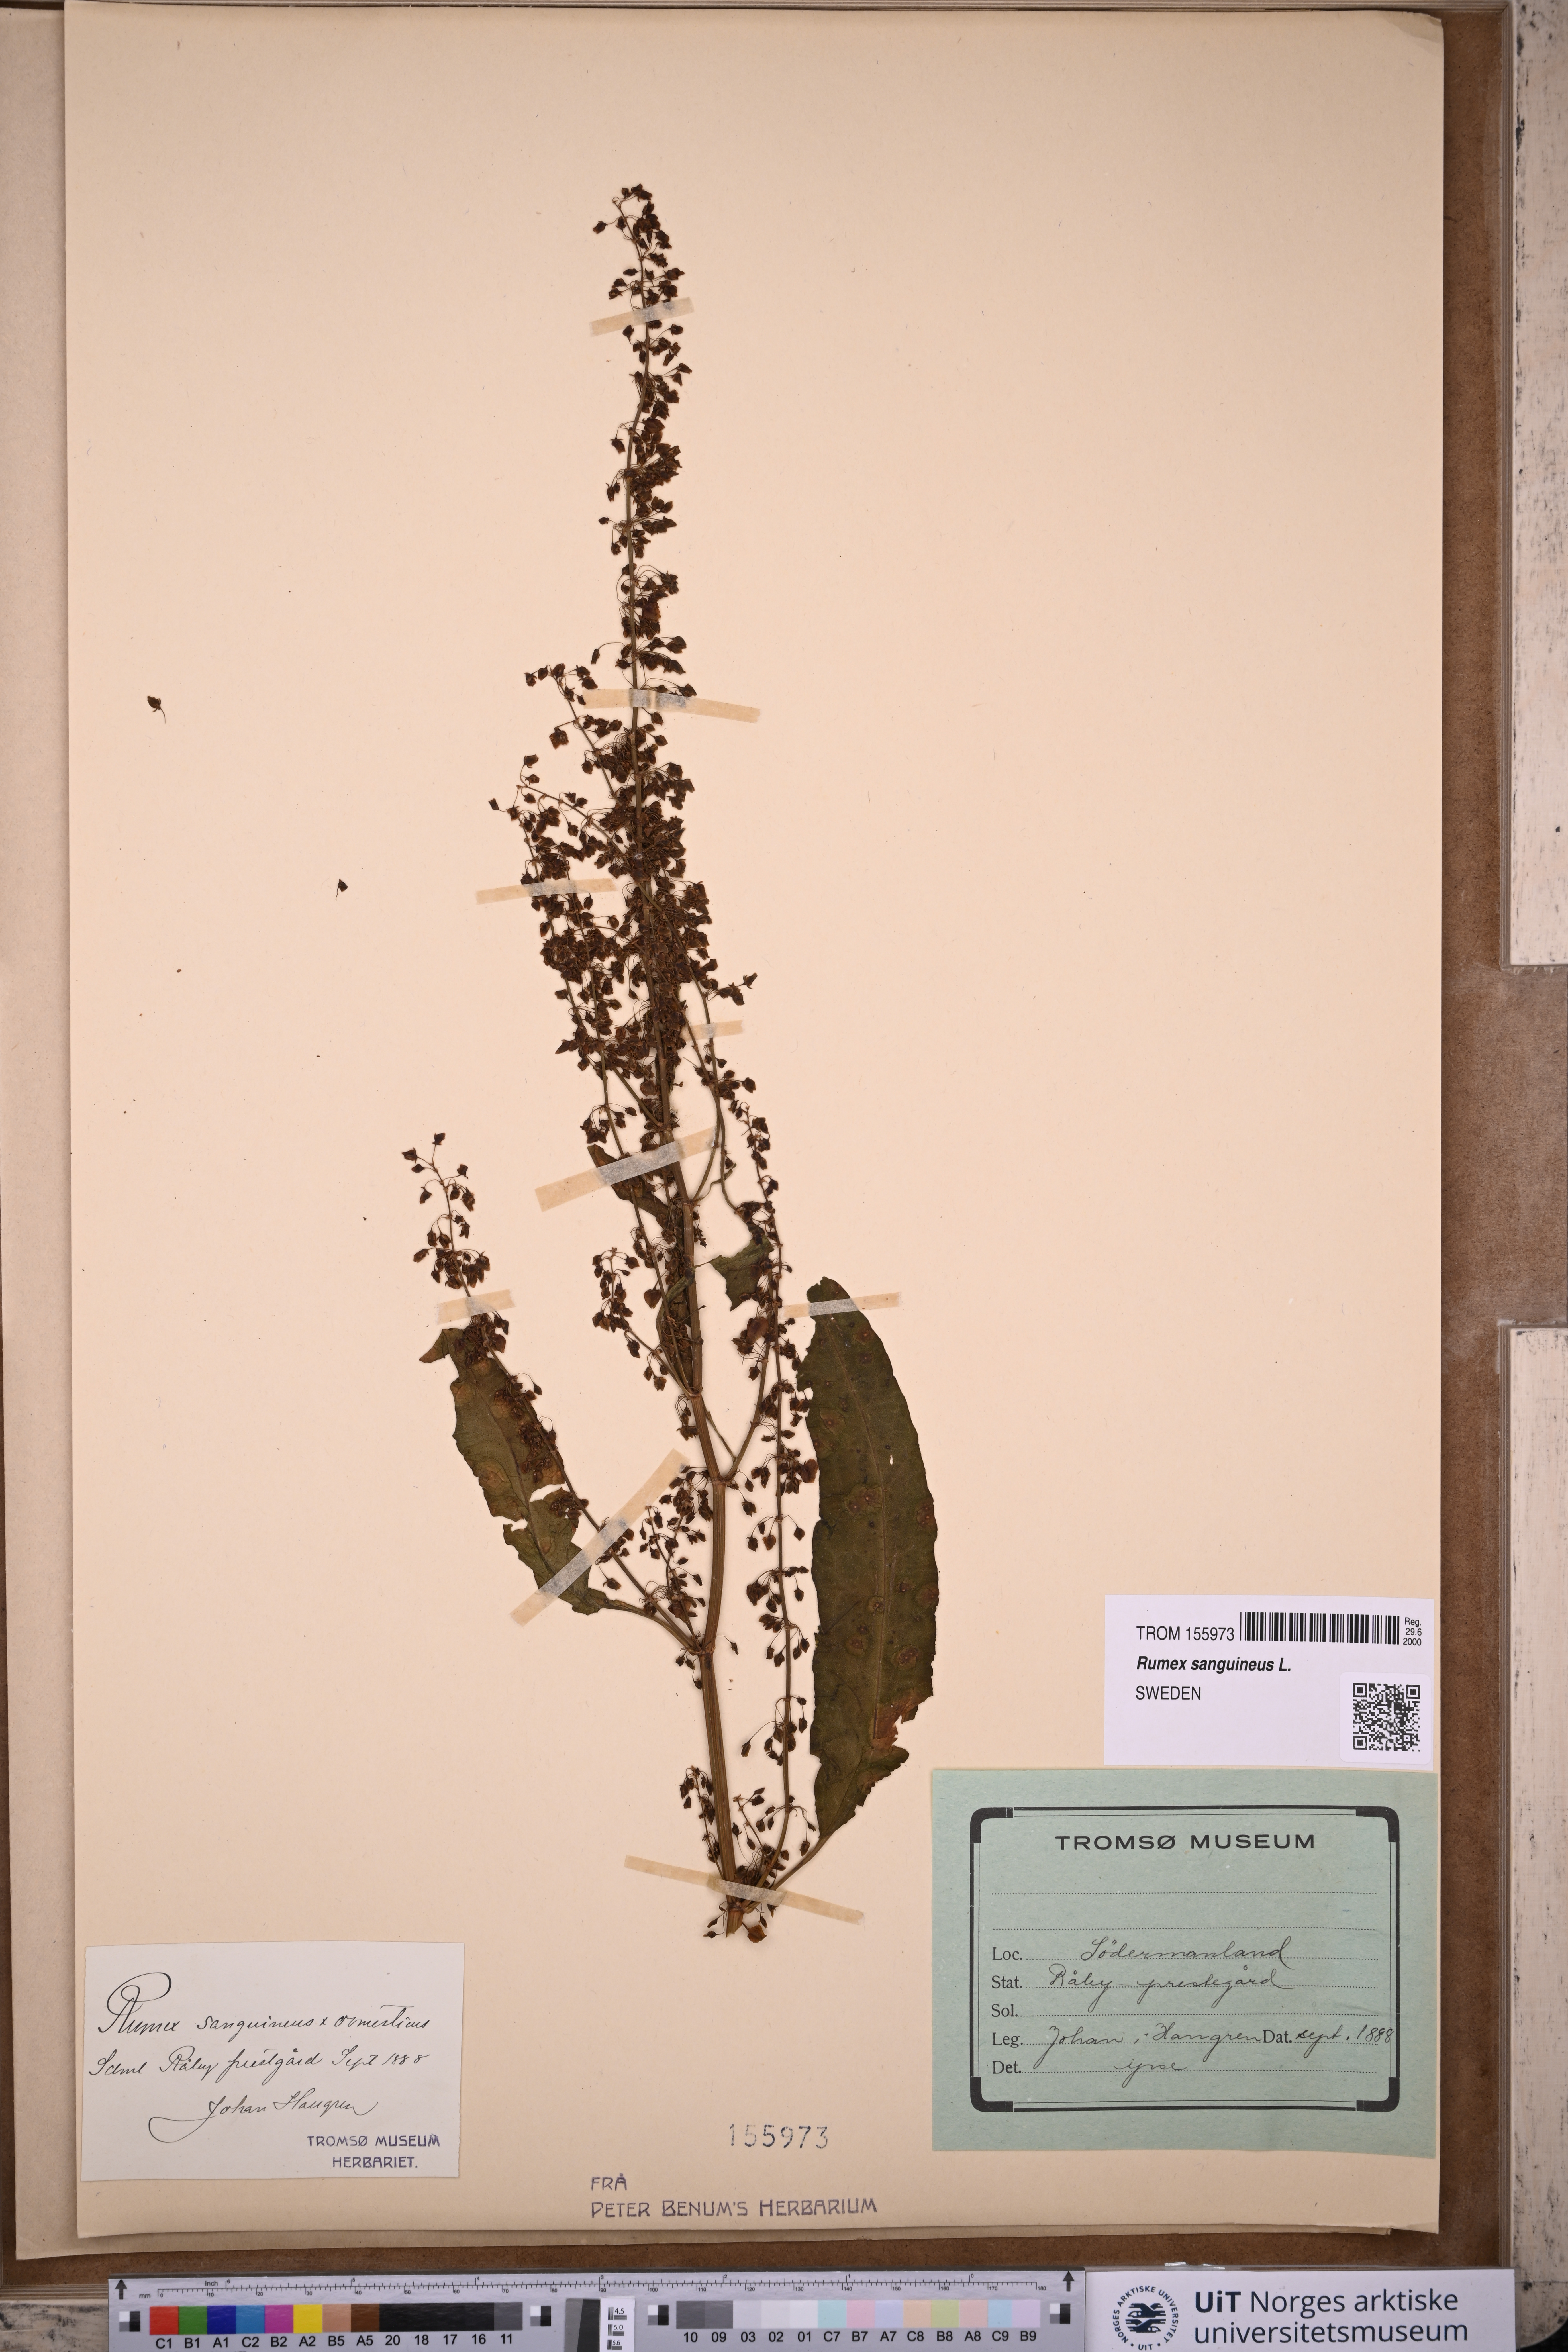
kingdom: Plantae
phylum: Tracheophyta
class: Magnoliopsida
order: Caryophyllales
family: Polygonaceae
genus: Rumex
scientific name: Rumex sanguineus
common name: Wood dock
